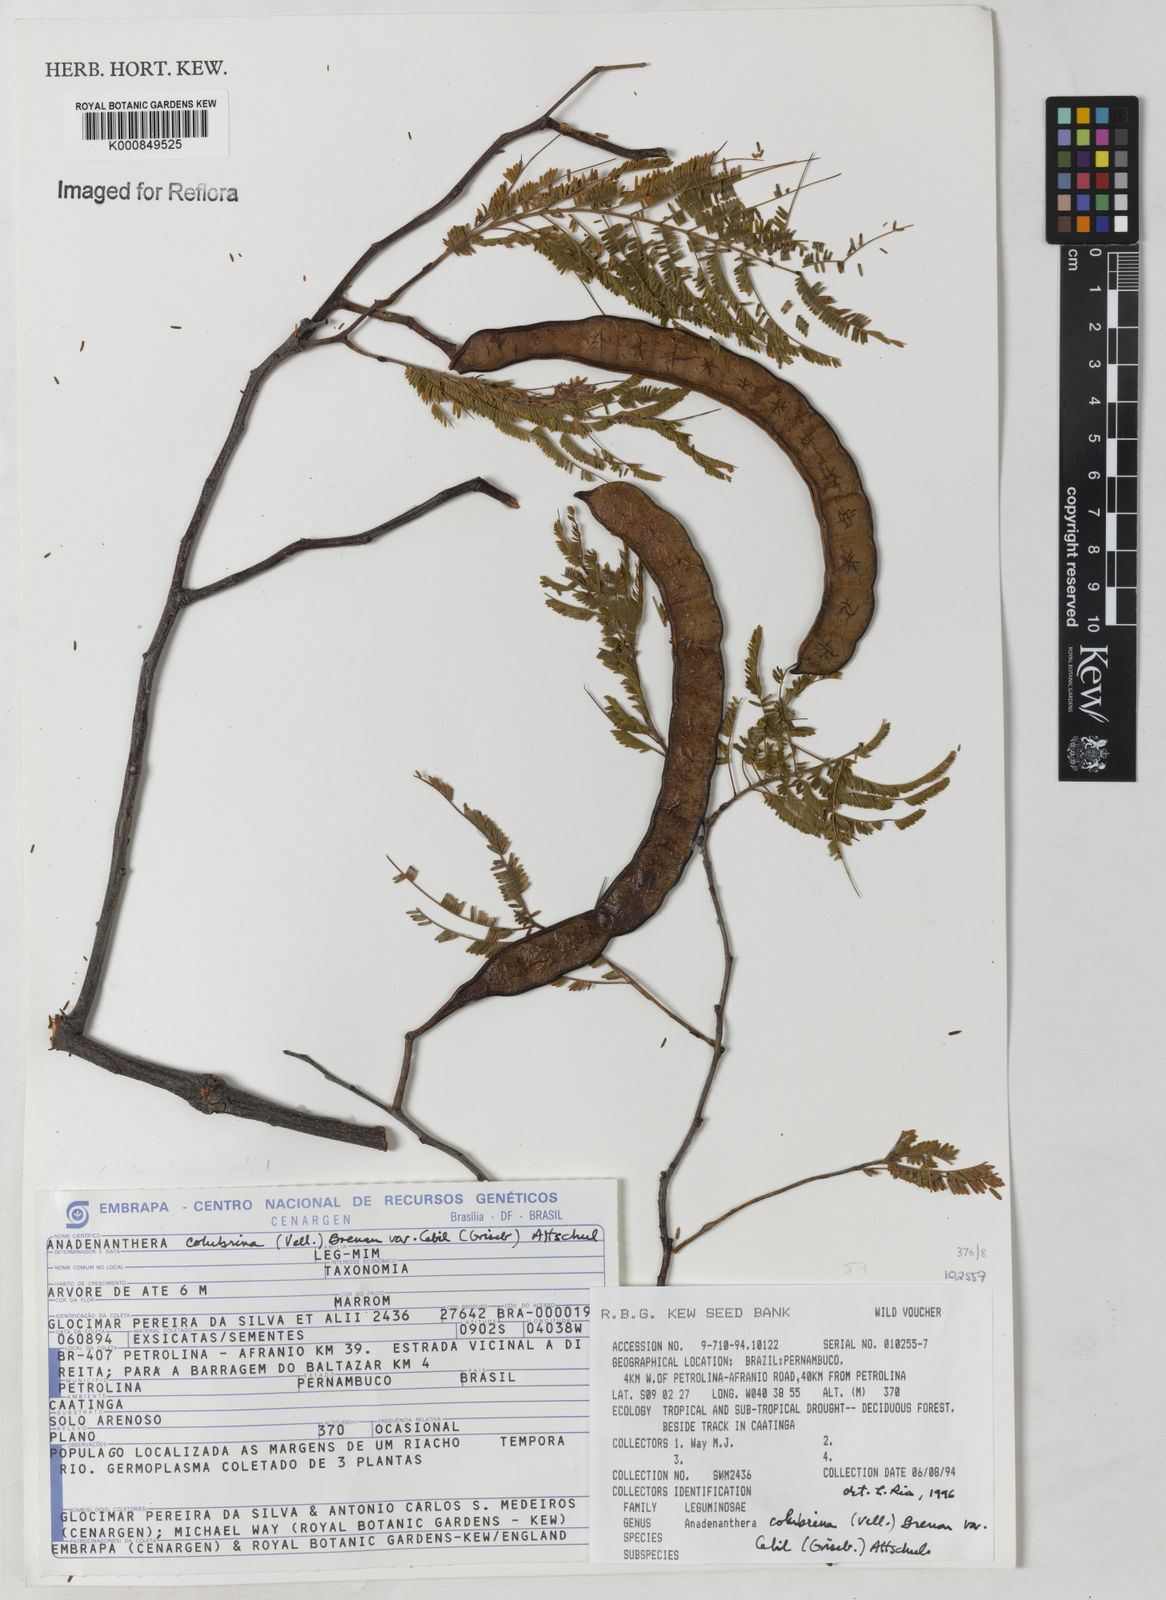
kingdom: Plantae
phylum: Tracheophyta
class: Magnoliopsida
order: Fabales
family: Fabaceae
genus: Anadenanthera
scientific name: Anadenanthera colubrina
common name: Curupay
